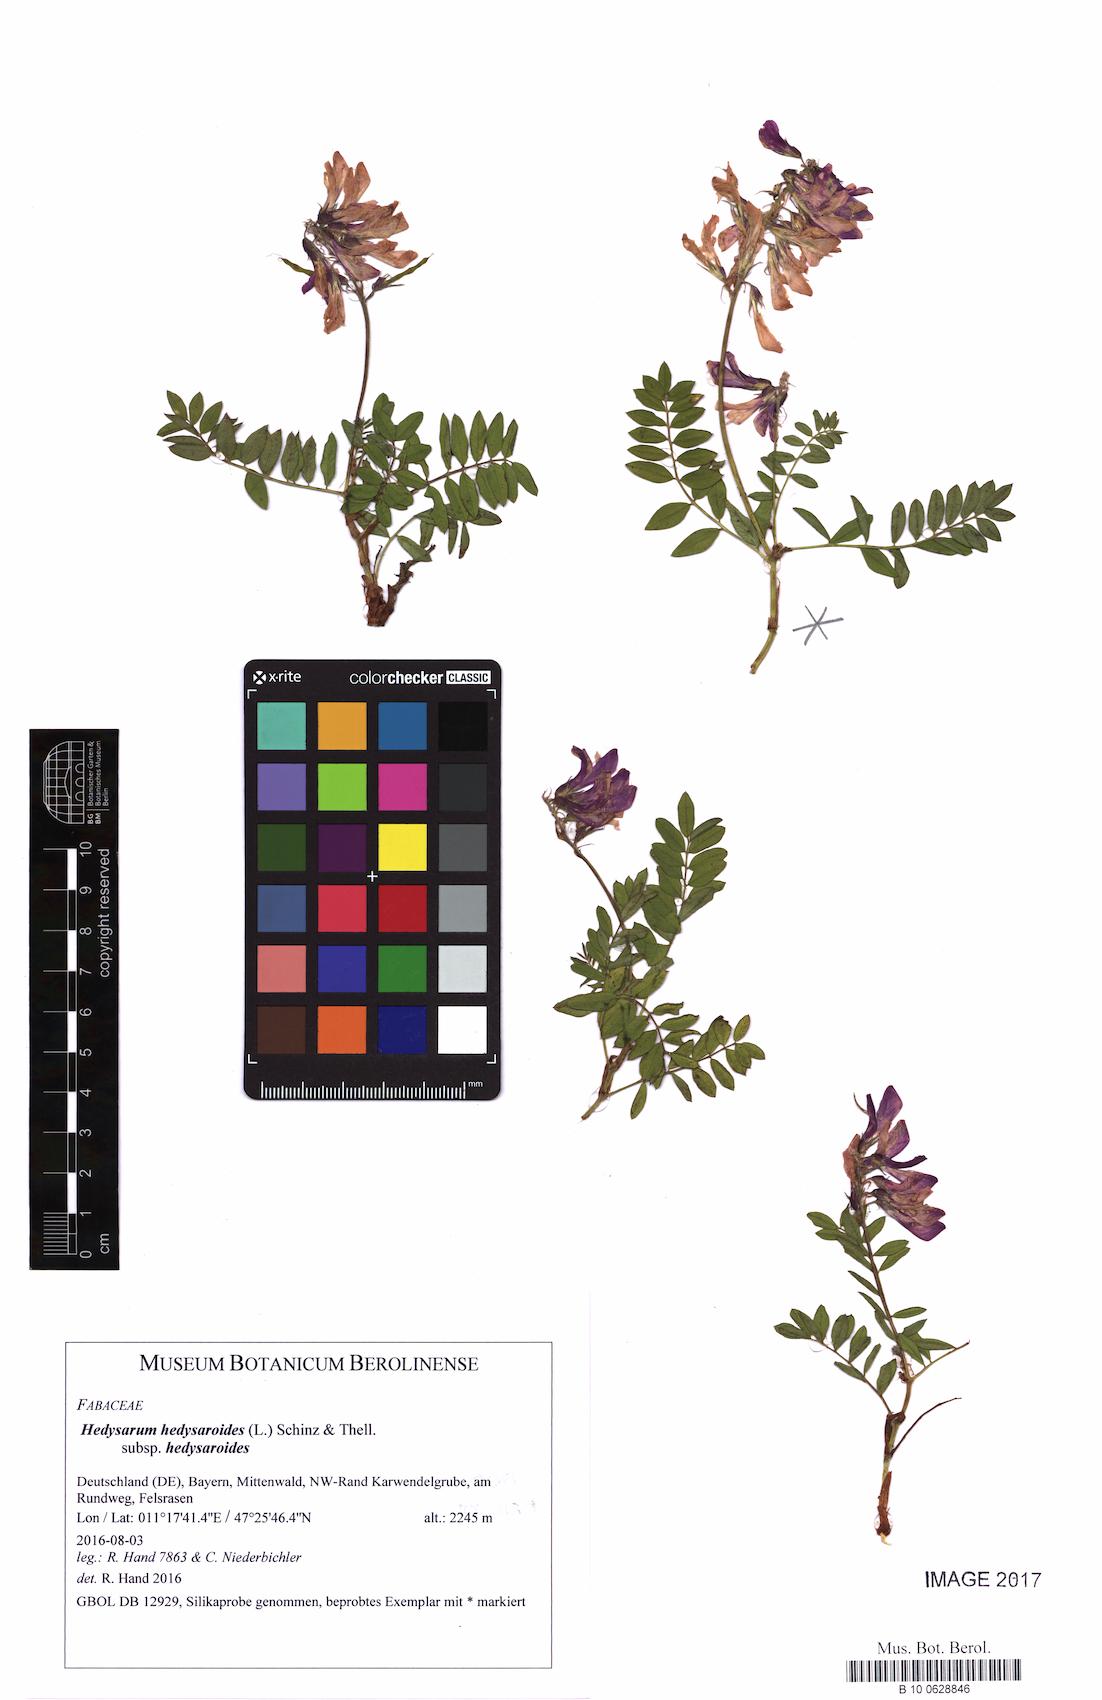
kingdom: Plantae
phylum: Tracheophyta
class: Magnoliopsida
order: Fabales
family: Fabaceae
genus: Hedysarum
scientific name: Hedysarum hedysaroides
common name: Alpine french-honeysuckle
